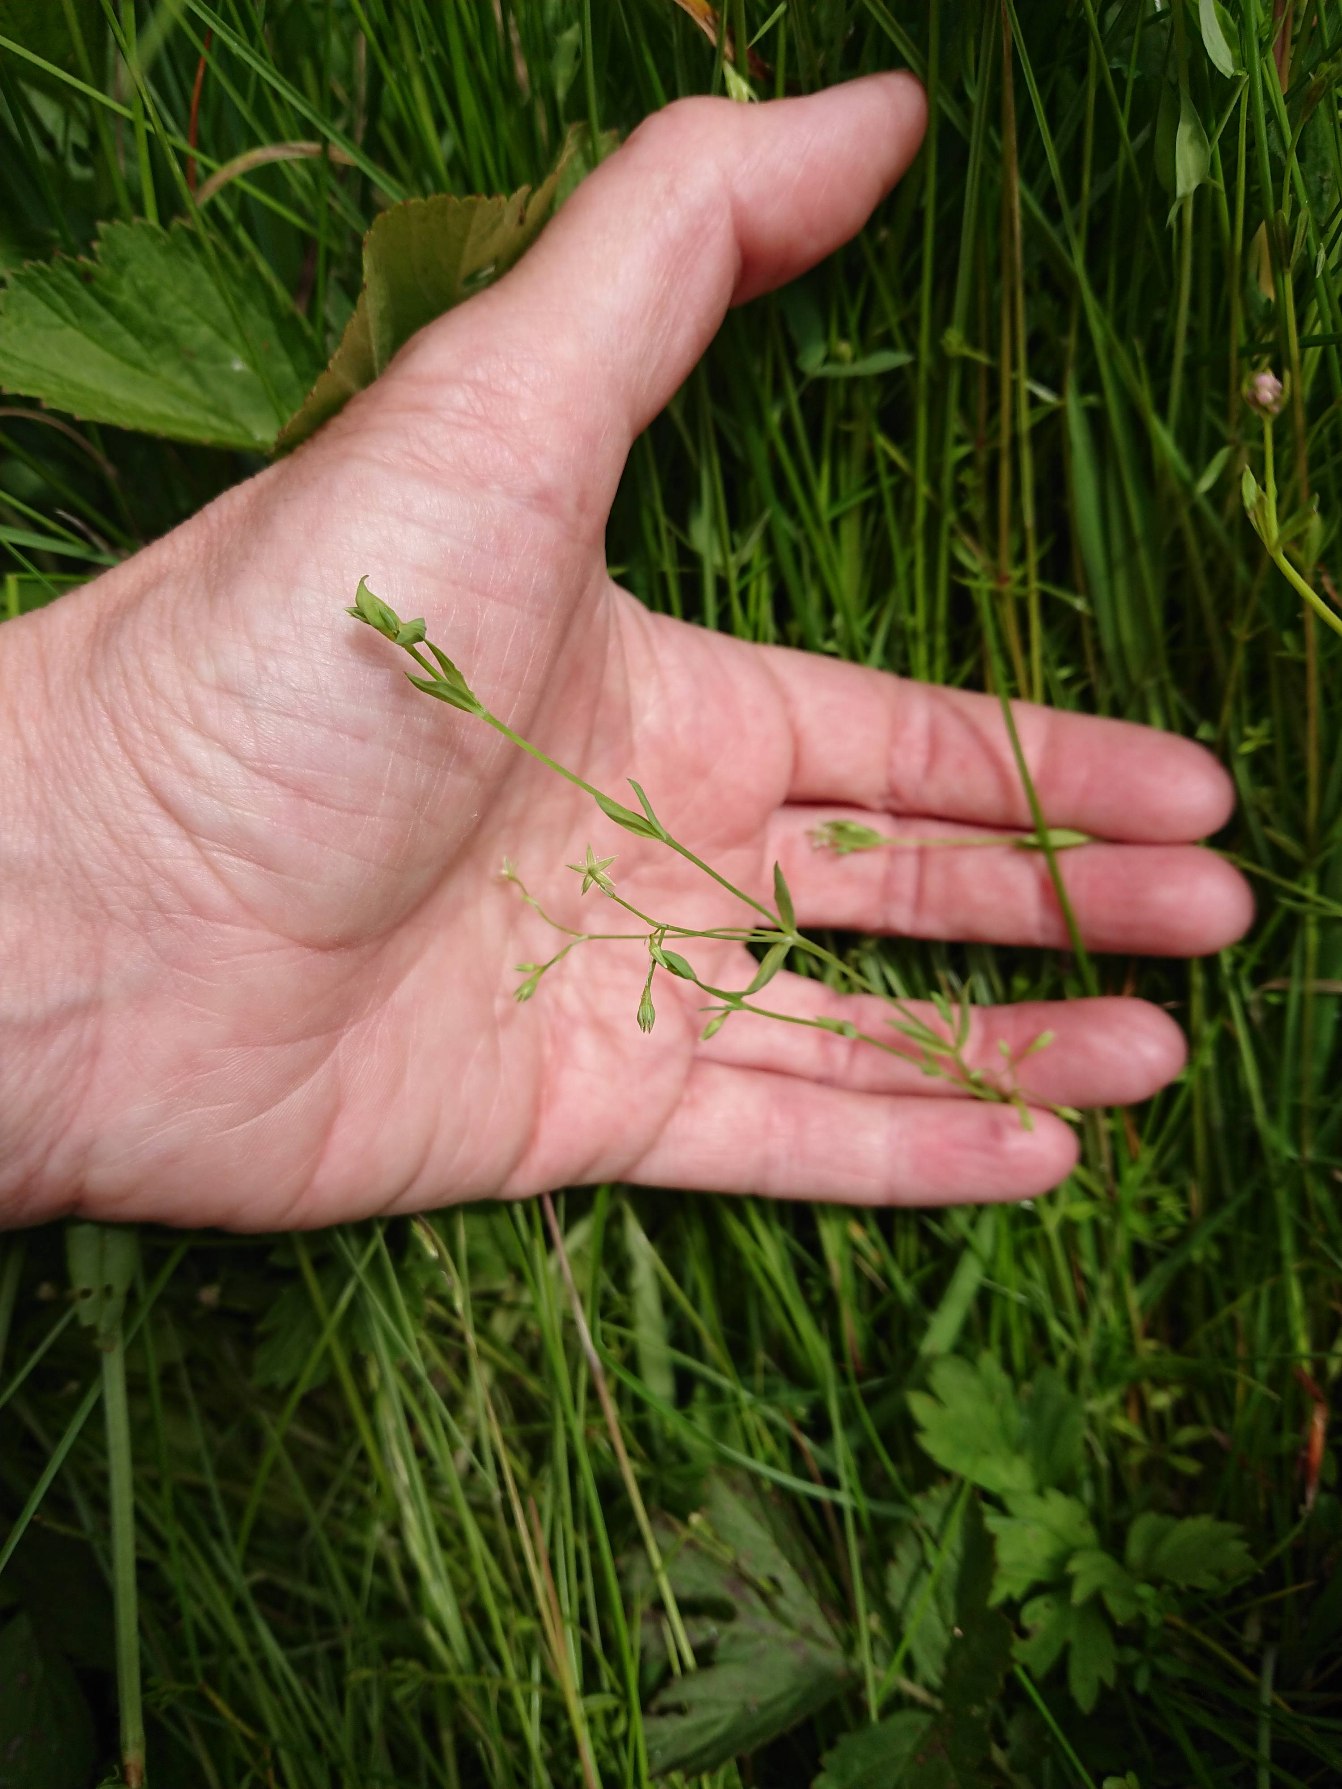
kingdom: Plantae
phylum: Tracheophyta
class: Magnoliopsida
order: Caryophyllales
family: Caryophyllaceae
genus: Stellaria
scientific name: Stellaria alsine
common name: Sump-fladstjerne
